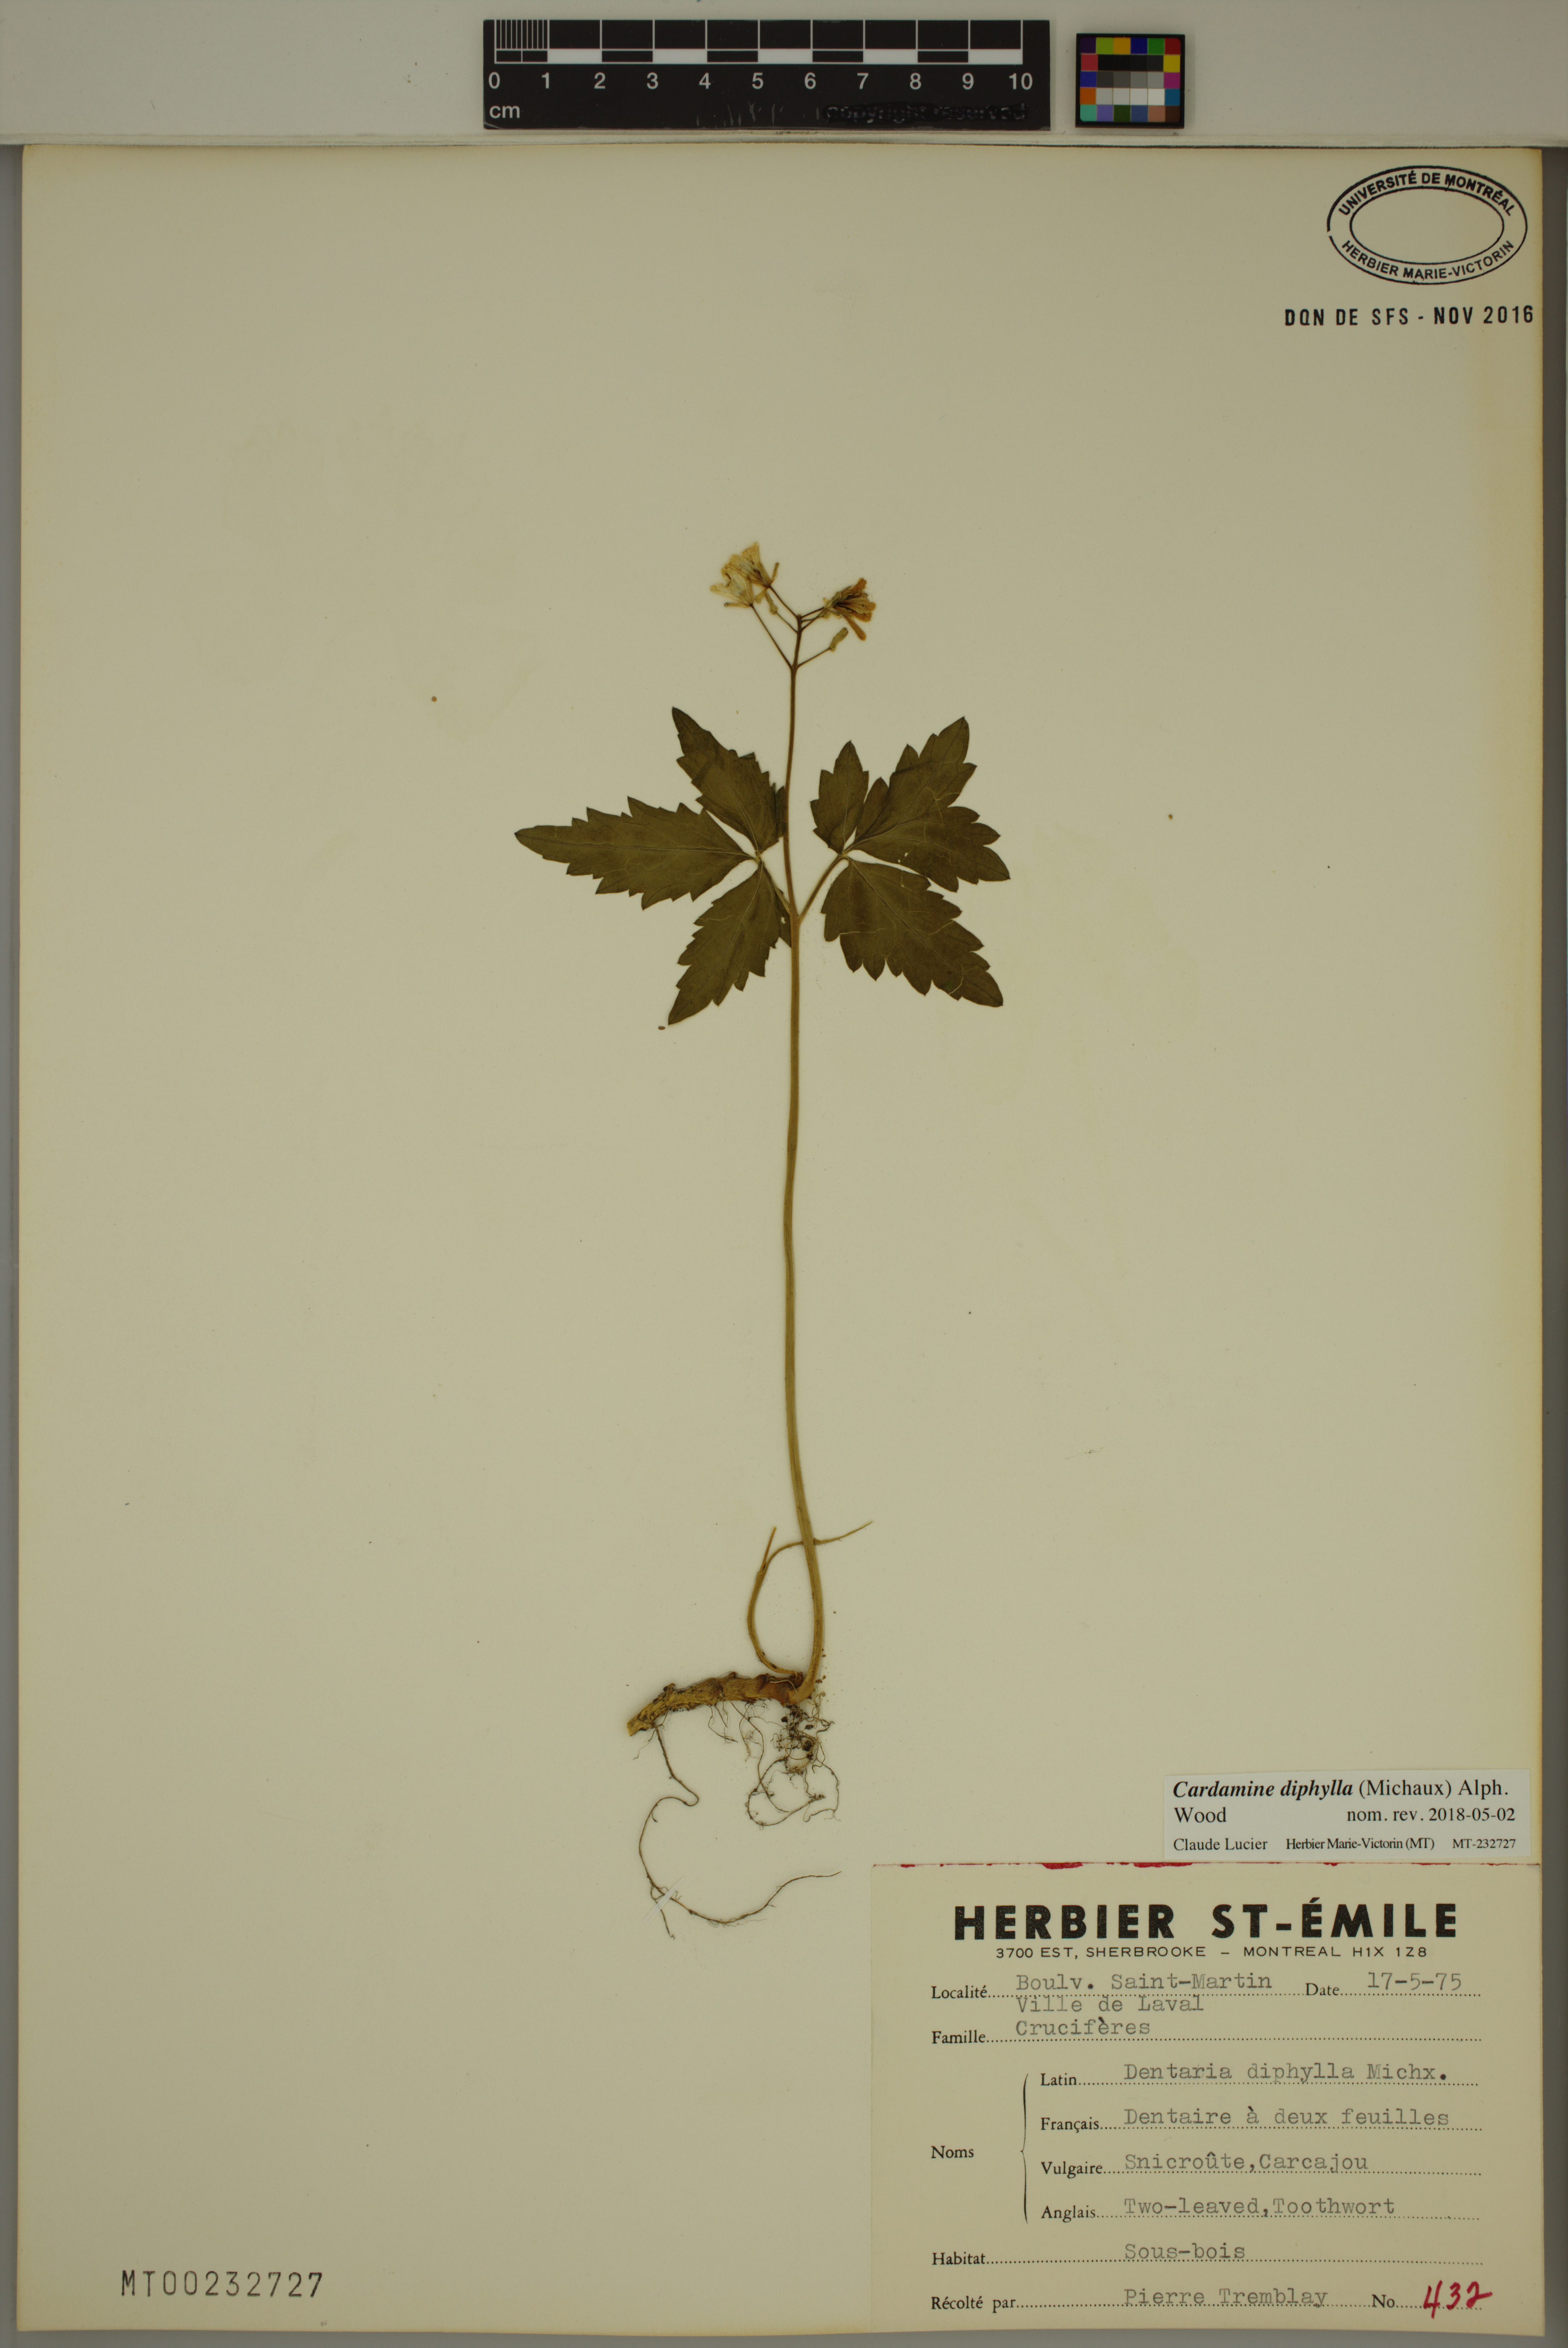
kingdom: Plantae
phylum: Tracheophyta
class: Magnoliopsida
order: Brassicales
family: Brassicaceae
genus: Cardamine
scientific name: Cardamine diphylla
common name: Broad-leaved toothwort
